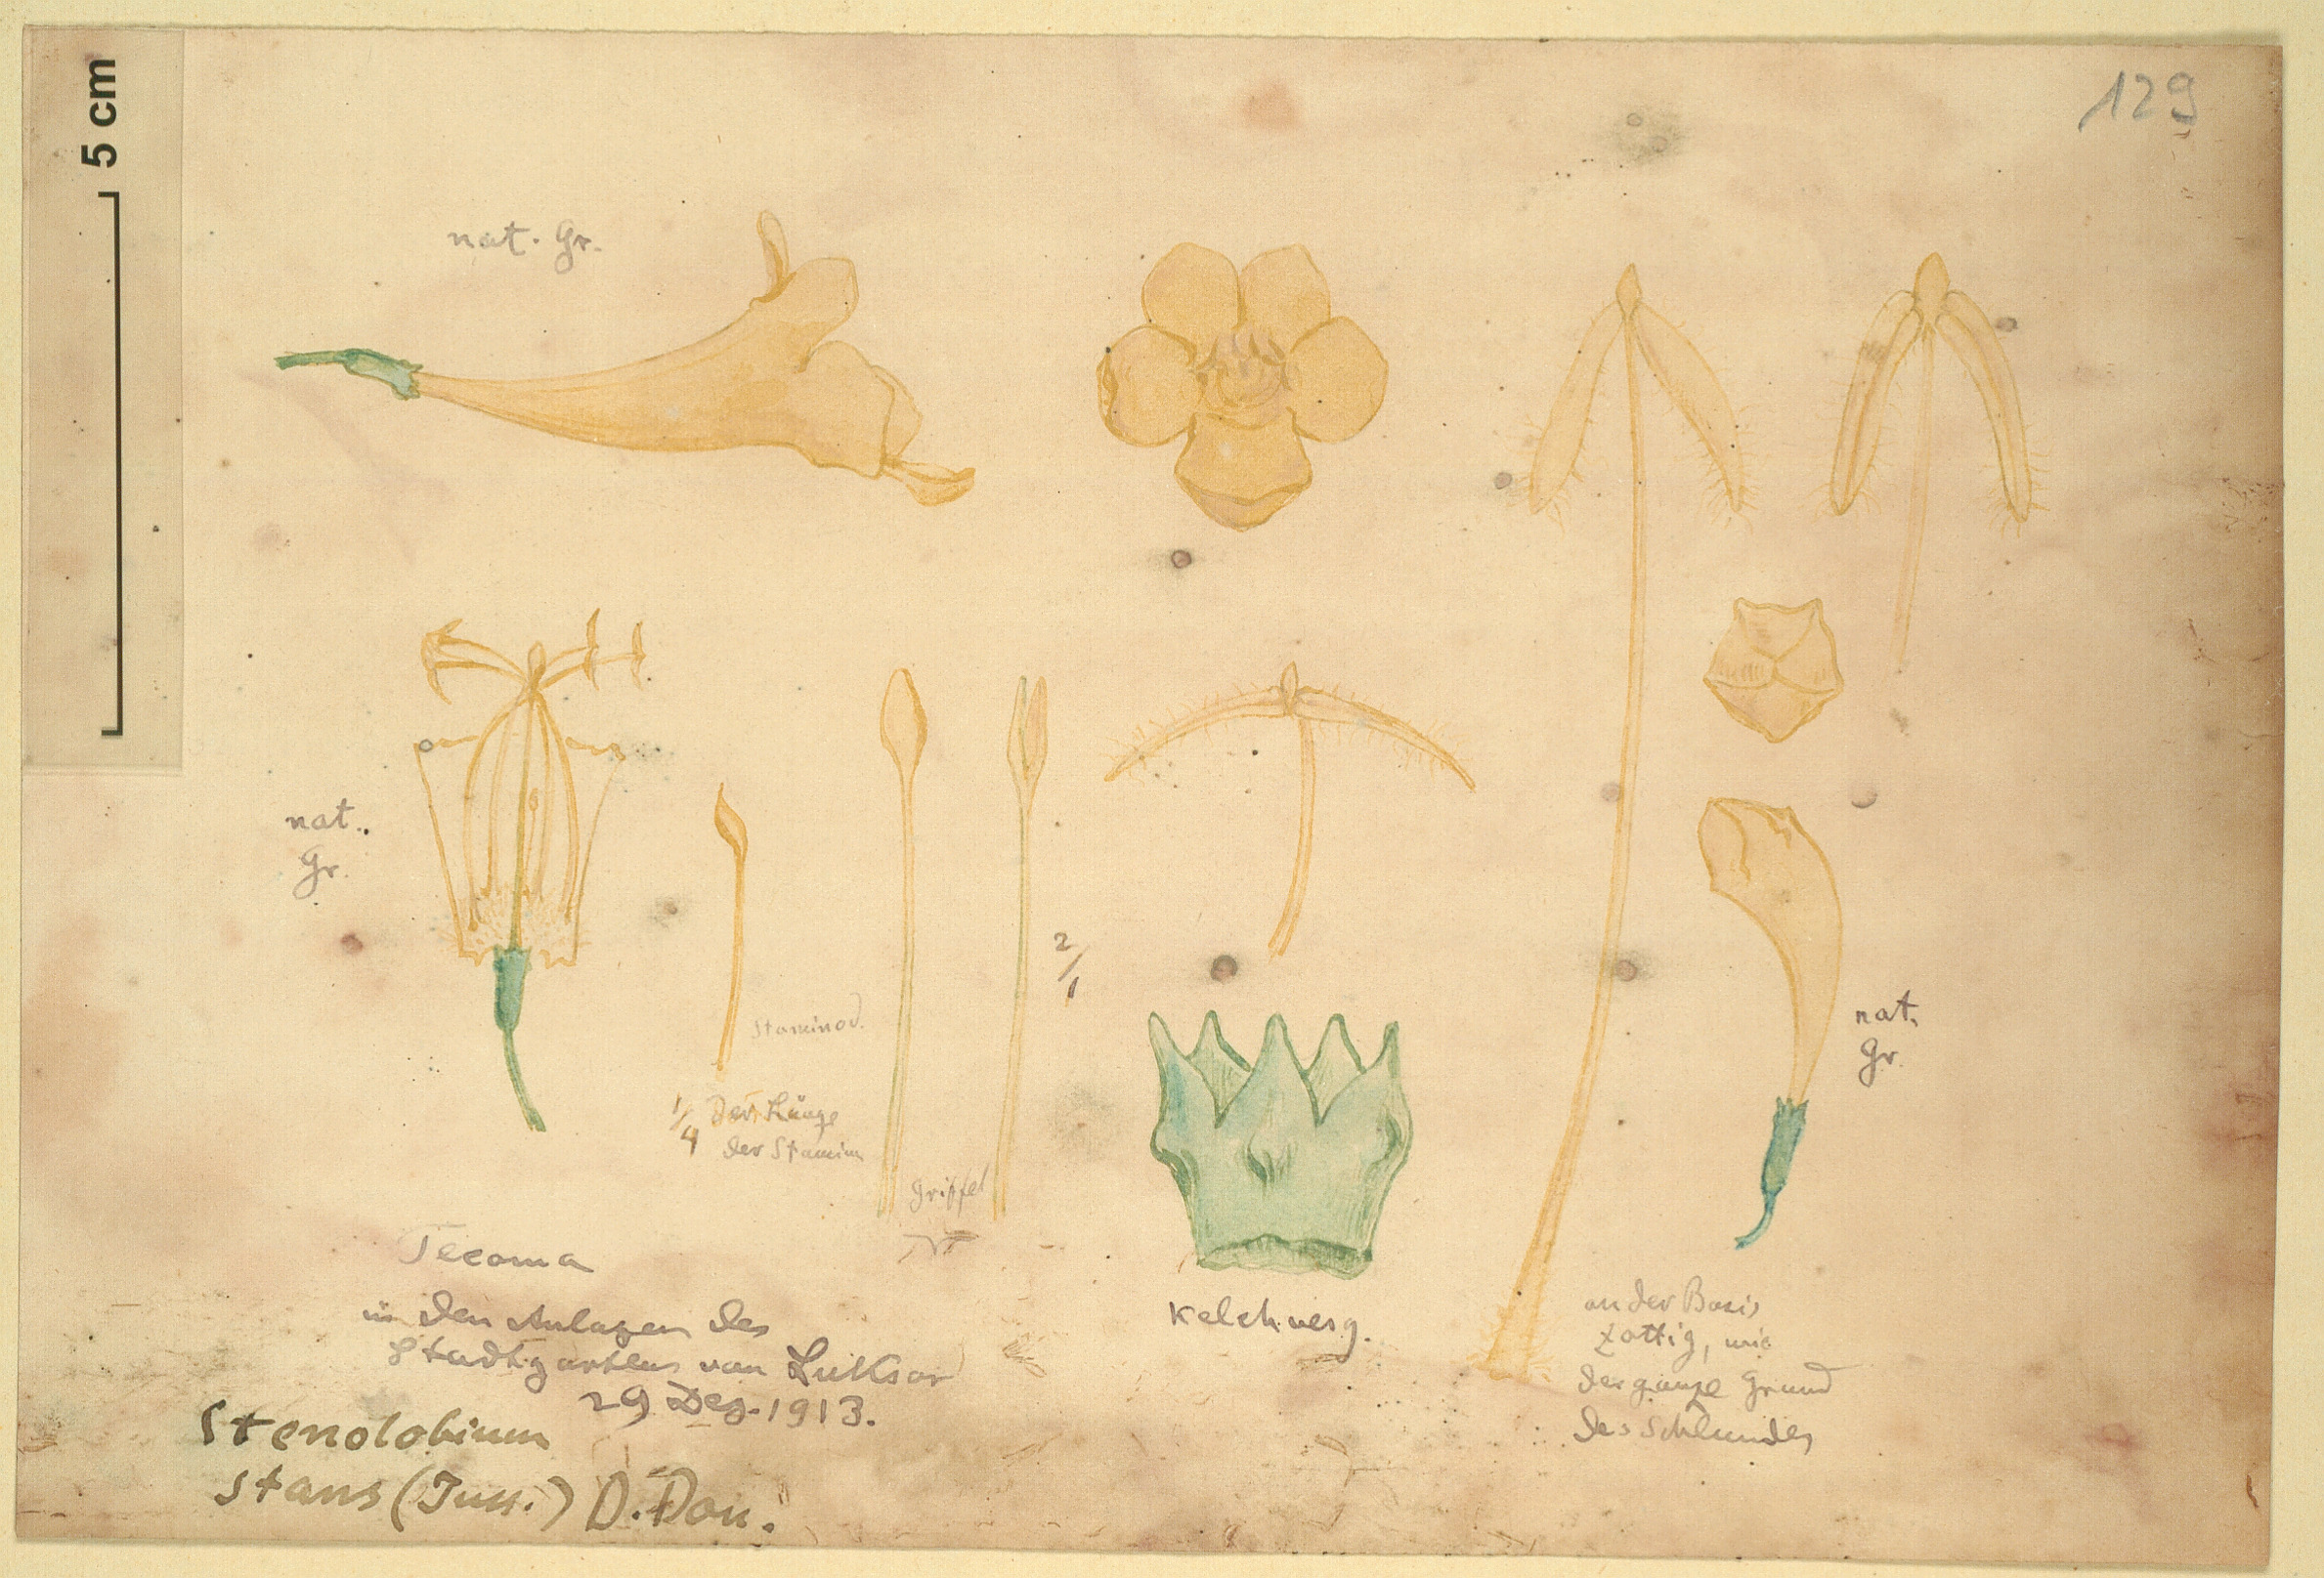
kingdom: Plantae
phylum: Tracheophyta
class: Magnoliopsida
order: Lamiales
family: Bignoniaceae
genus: Tecoma
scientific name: Tecoma stans
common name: Yellow trumpetbush
